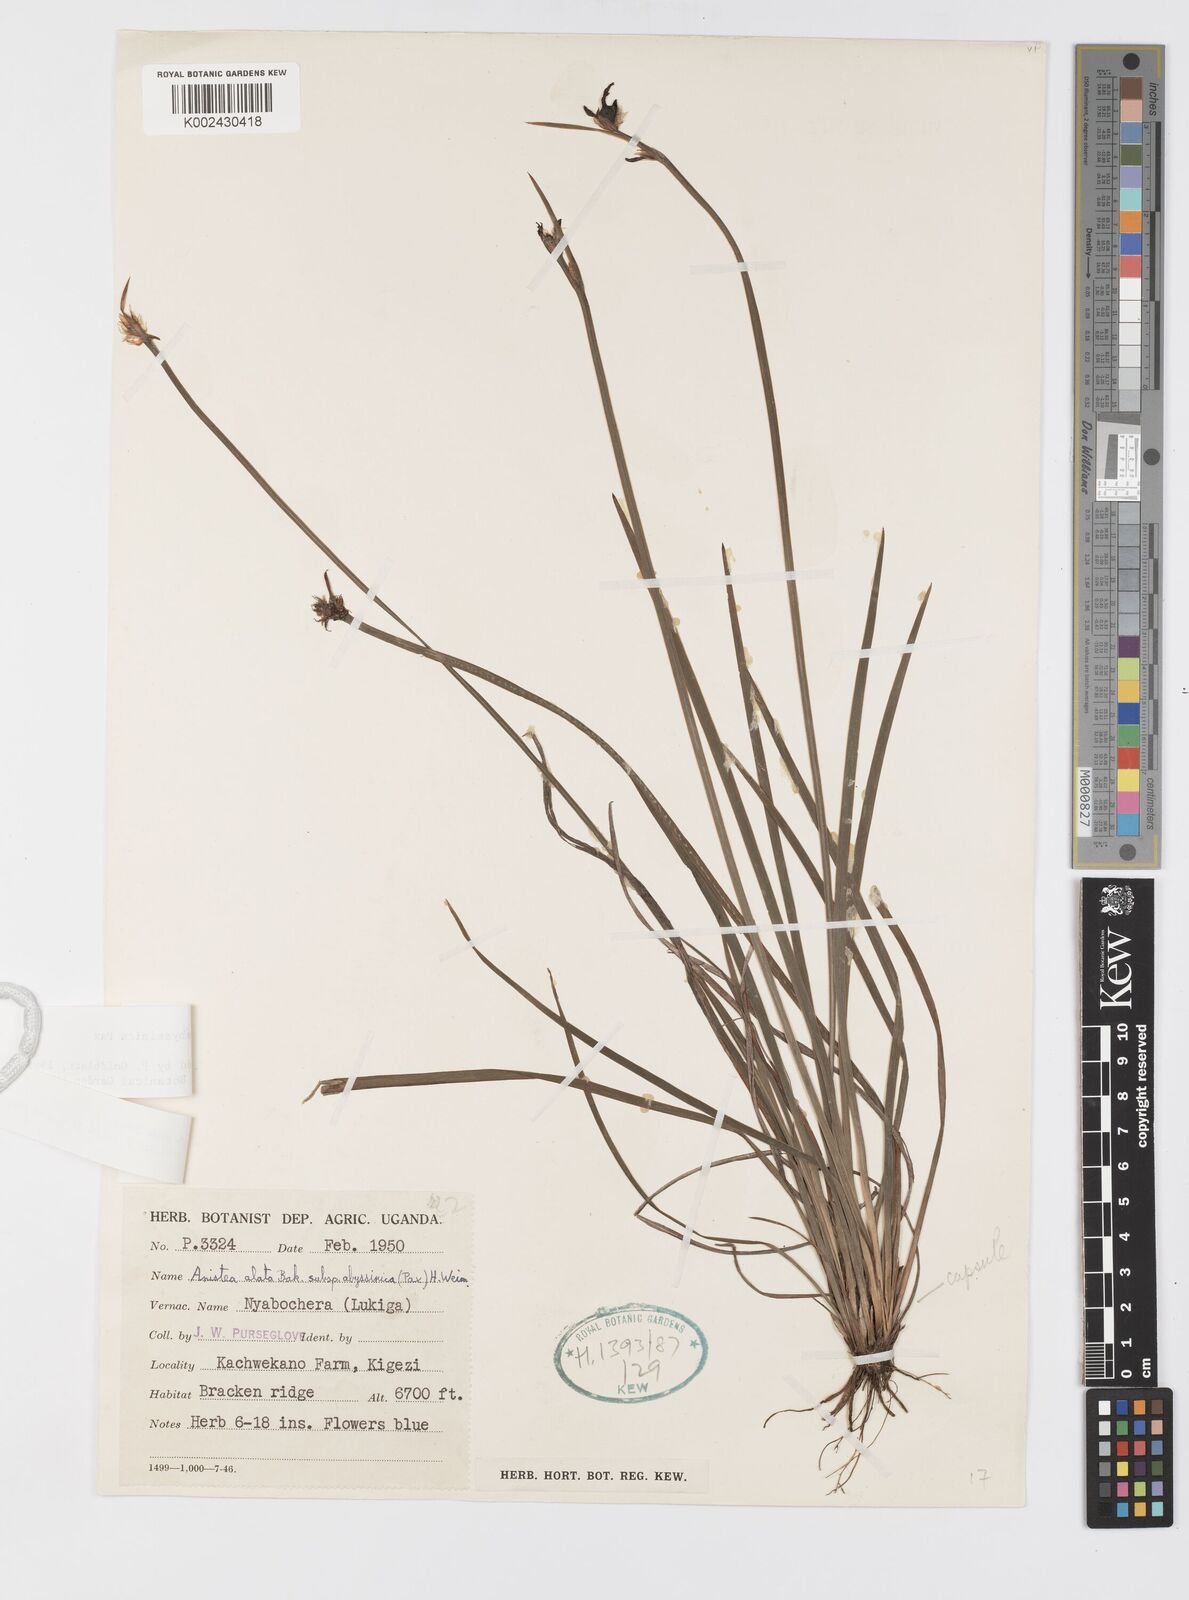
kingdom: Plantae
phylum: Tracheophyta
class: Liliopsida
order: Asparagales
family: Iridaceae
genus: Aristea
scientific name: Aristea abyssinica
